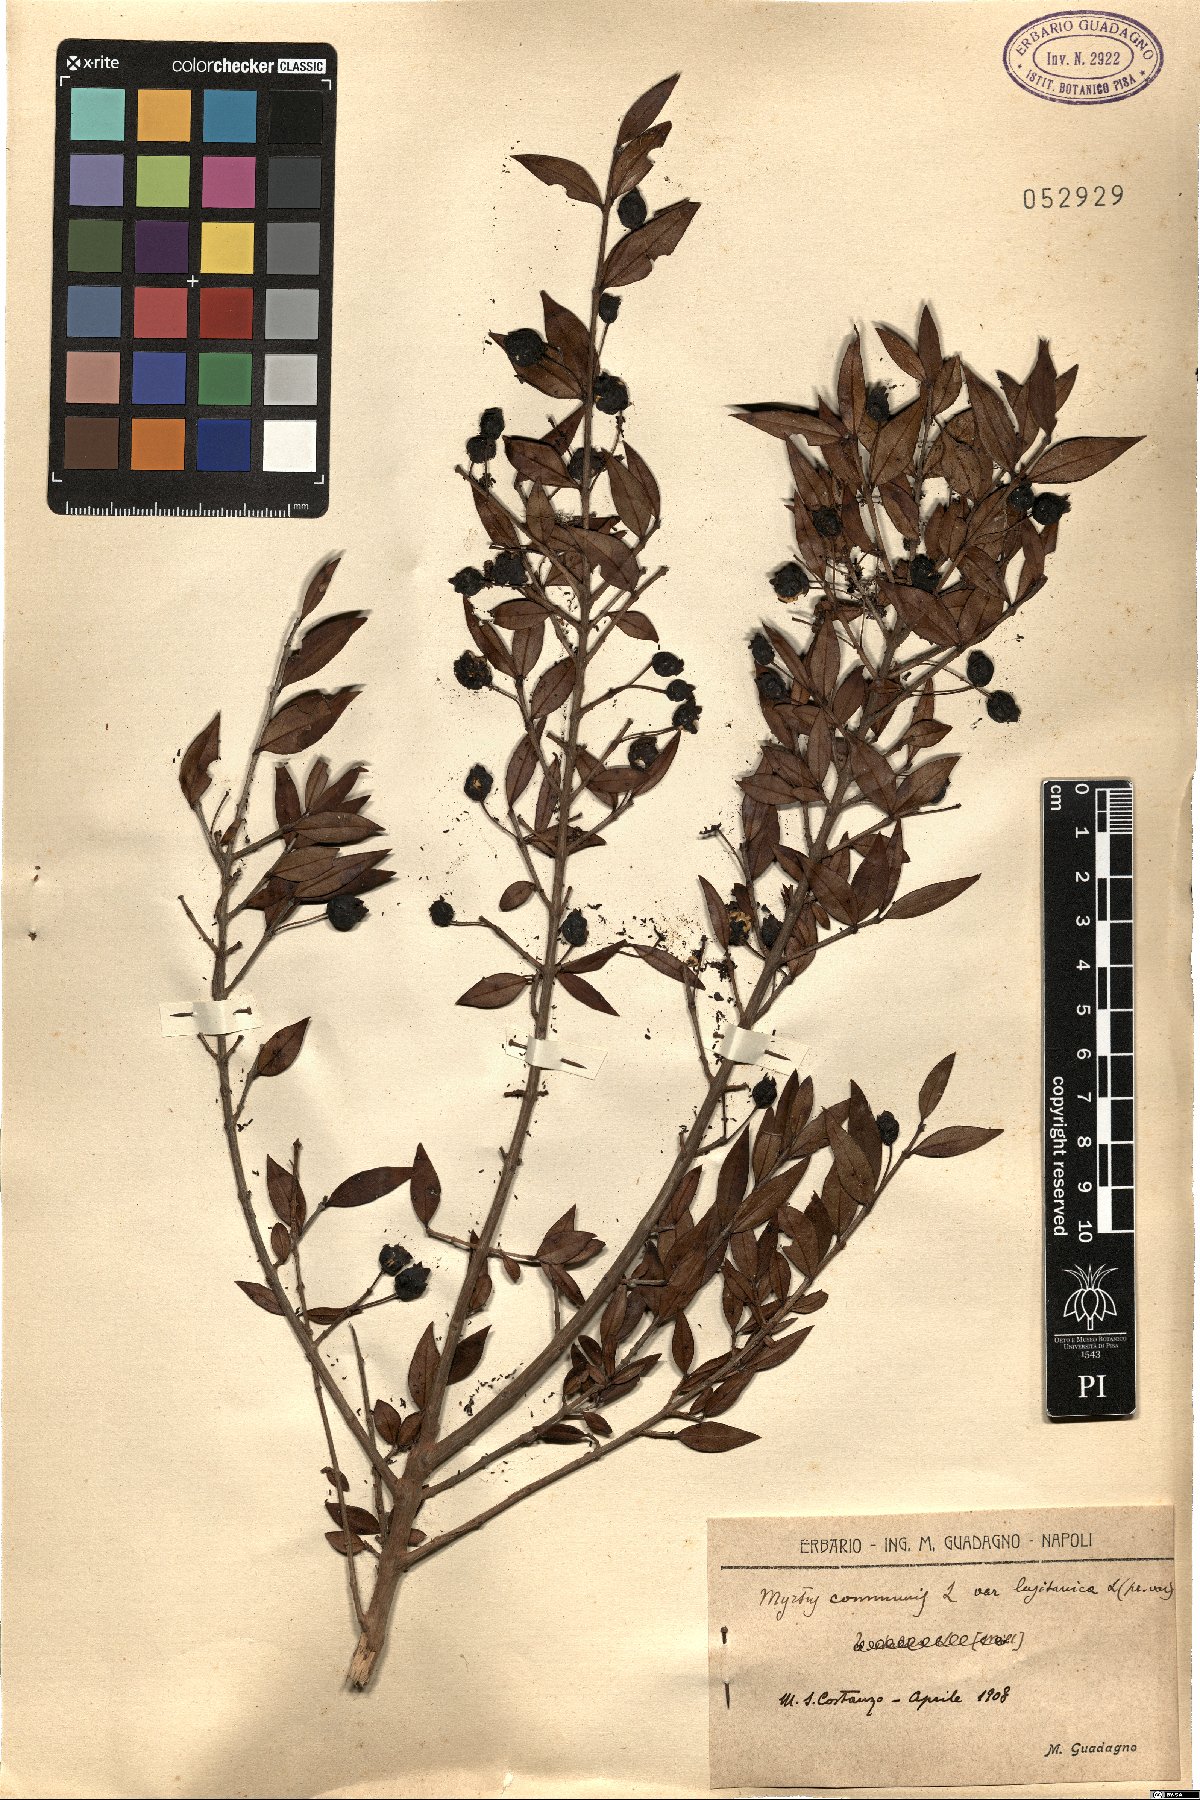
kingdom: Plantae
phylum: Tracheophyta
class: Magnoliopsida
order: Myrtales
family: Myrtaceae
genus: Myrtus
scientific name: Myrtus communis
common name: Myrtle
